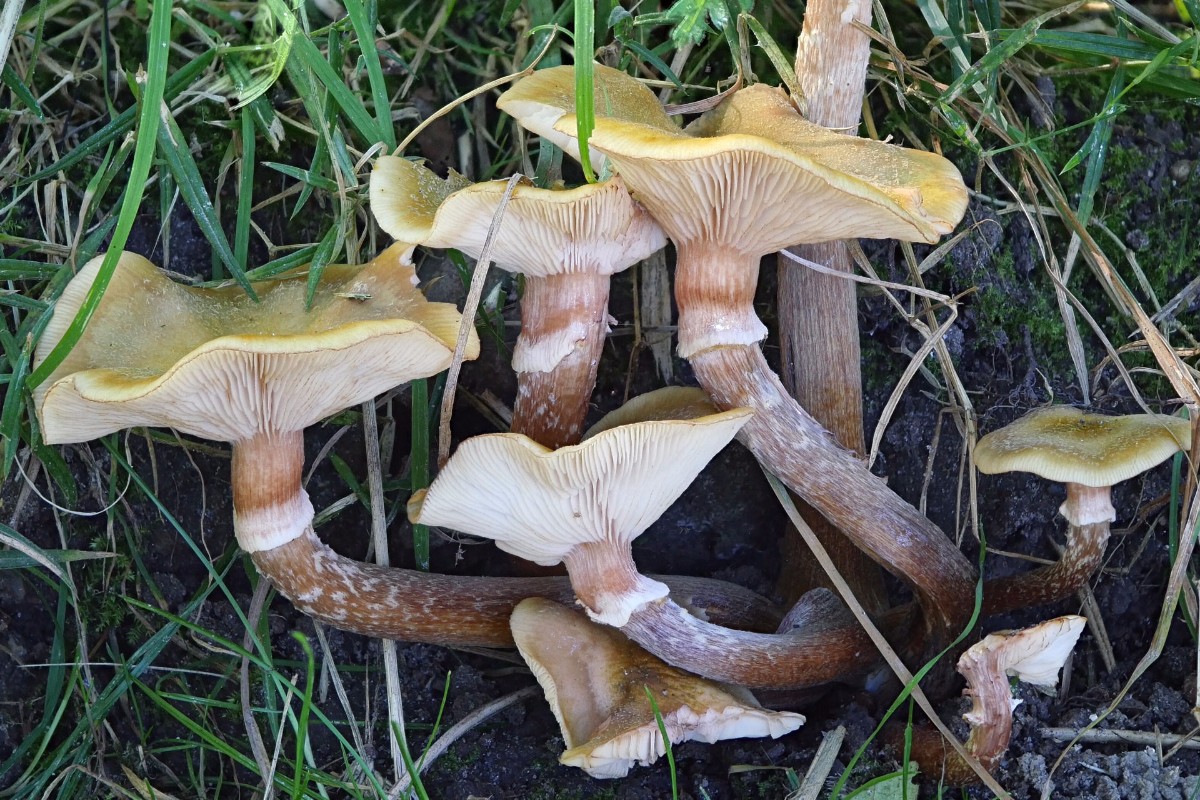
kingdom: Fungi
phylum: Basidiomycota
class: Agaricomycetes
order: Agaricales
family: Physalacriaceae
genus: Armillaria
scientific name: Armillaria mellea
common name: ægte honningsvamp
